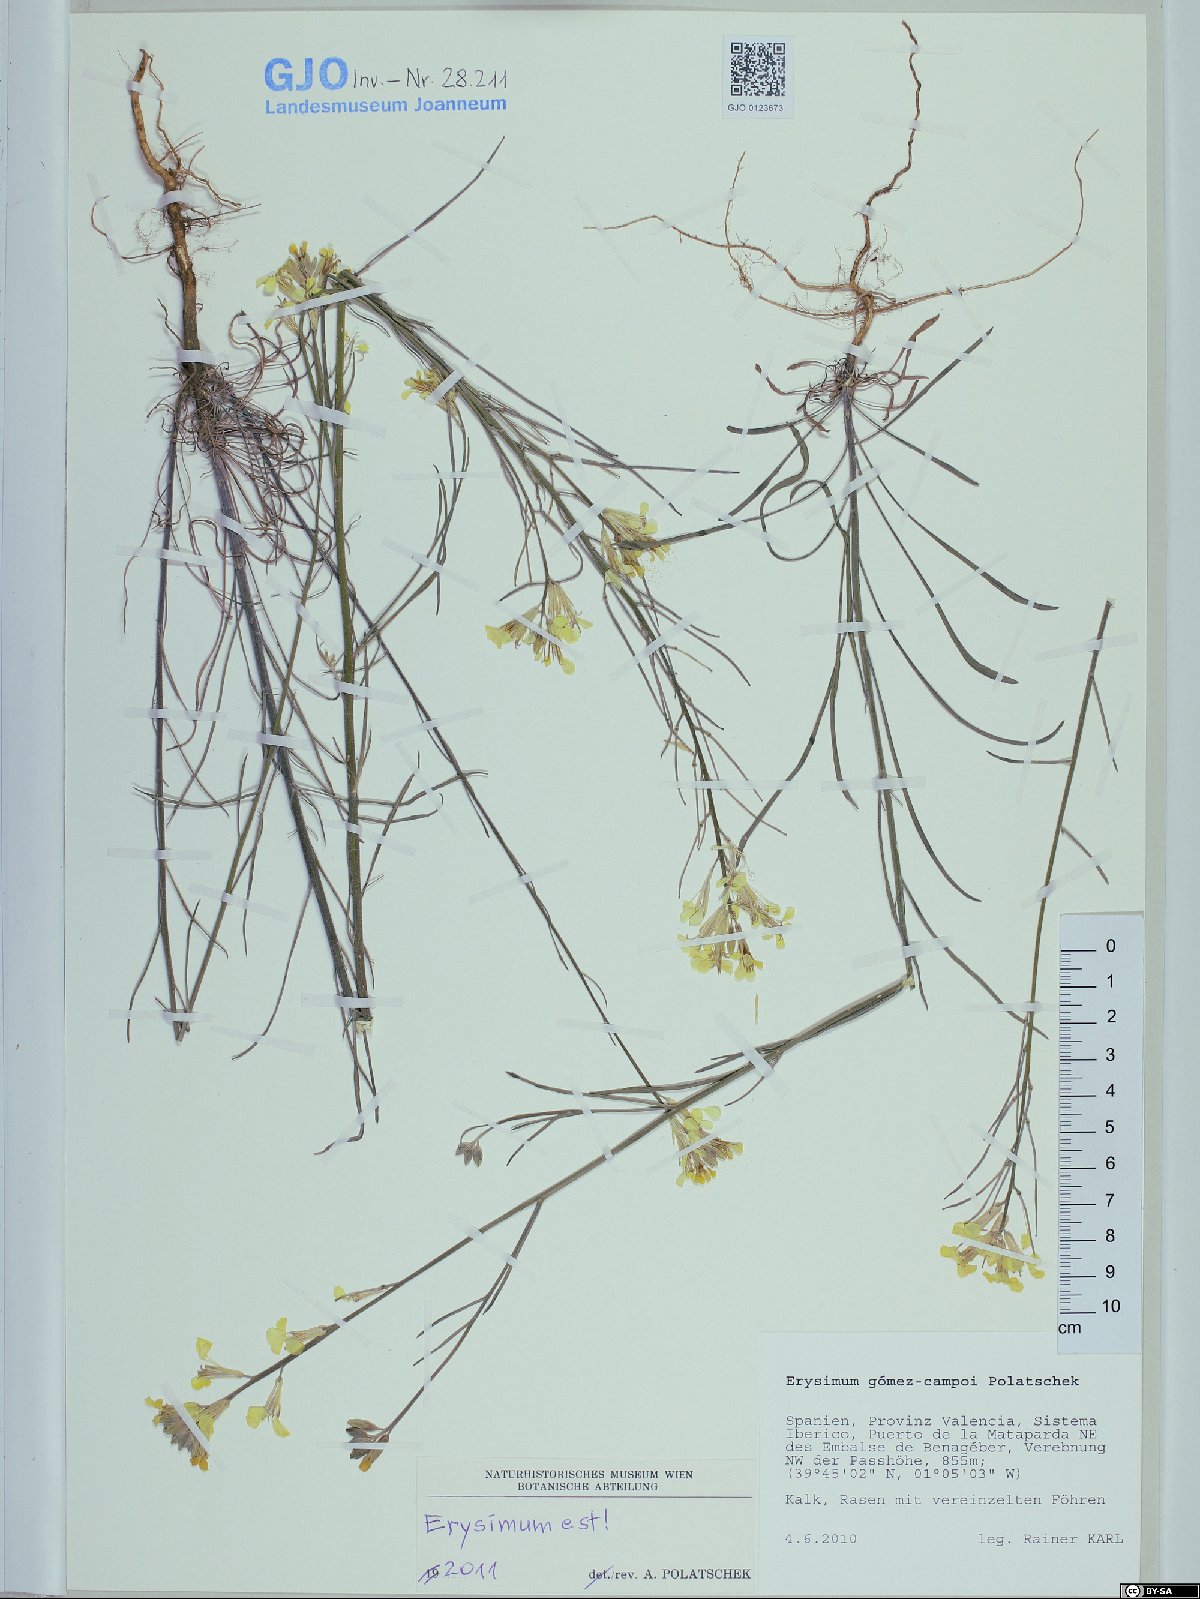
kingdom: Plantae
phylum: Tracheophyta
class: Magnoliopsida
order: Brassicales
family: Brassicaceae
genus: Erysimum
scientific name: Erysimum nevadense
